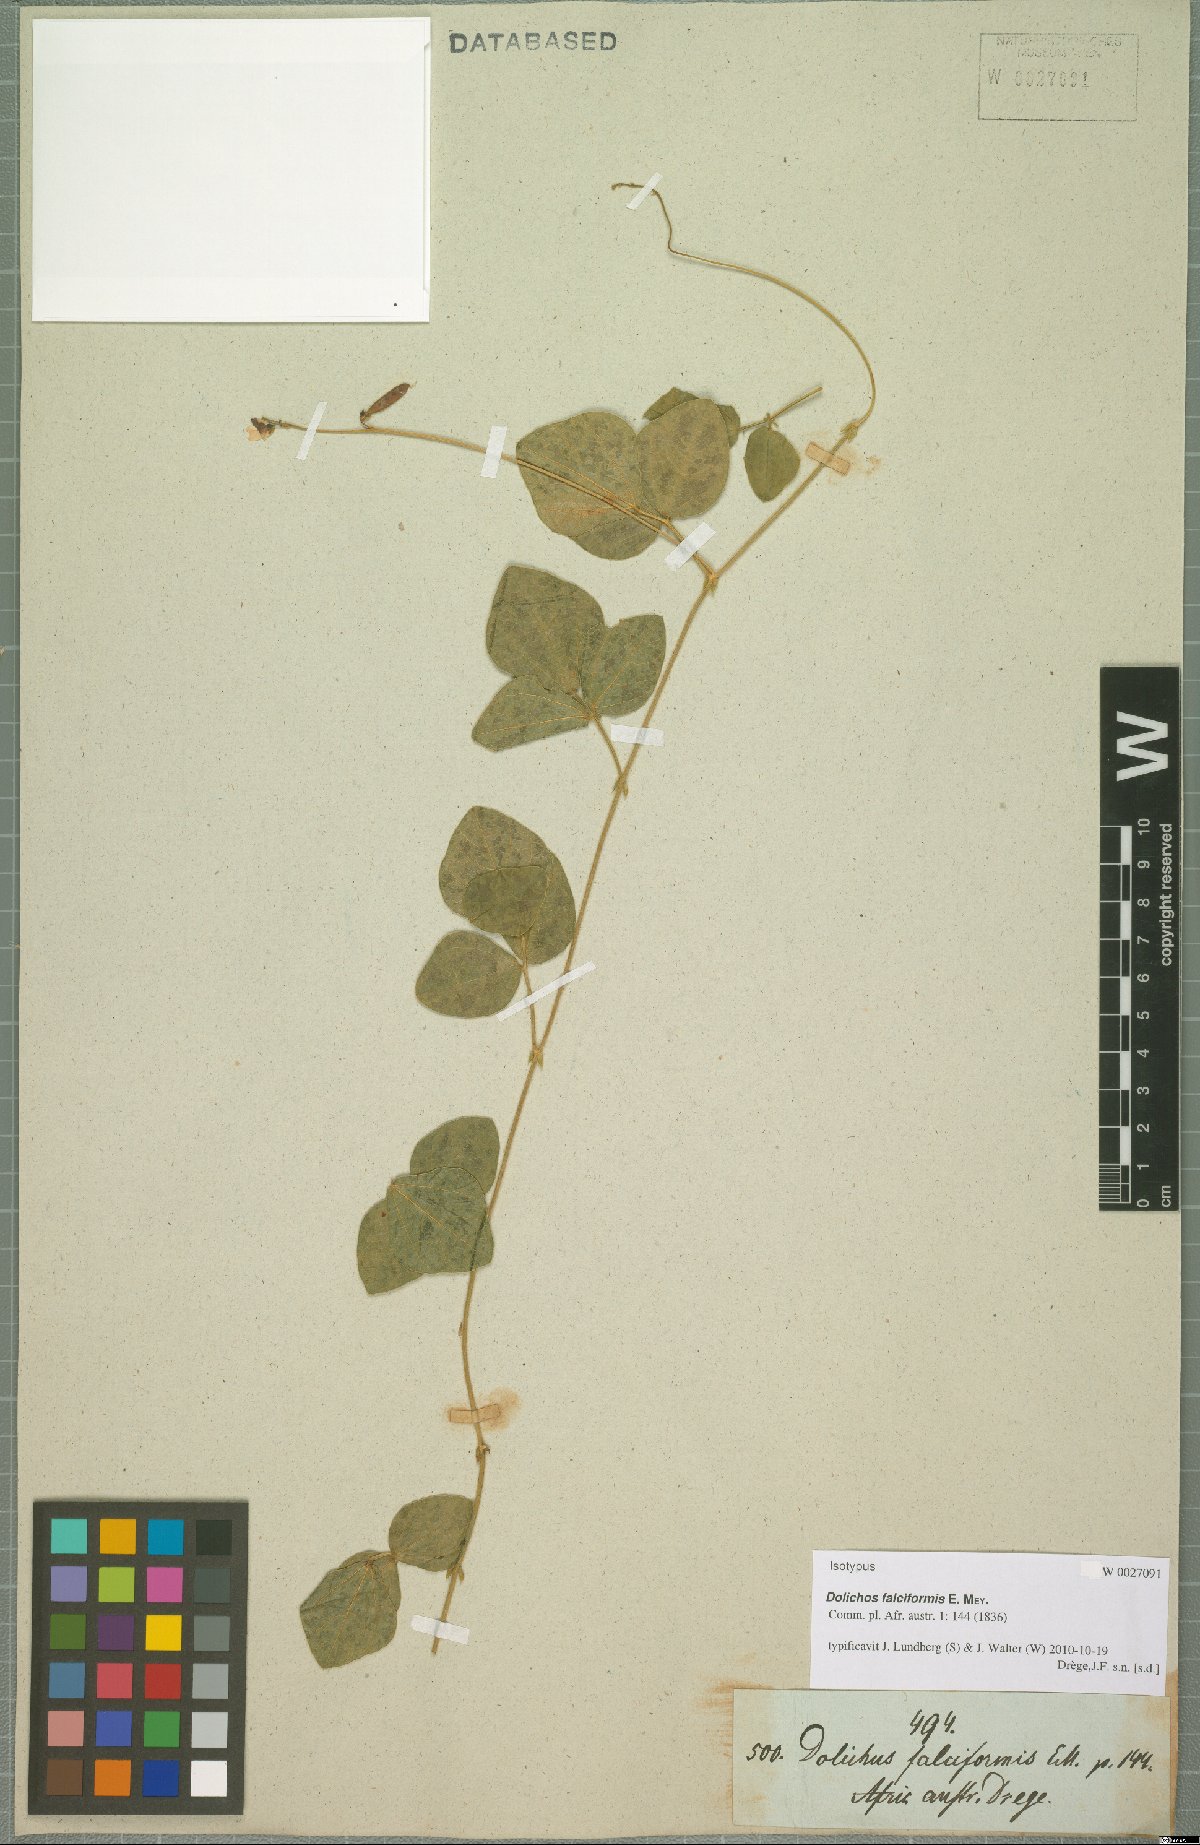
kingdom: Plantae
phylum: Tracheophyta
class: Magnoliopsida
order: Fabales
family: Fabaceae
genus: Dolichos
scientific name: Dolichos falciformis
